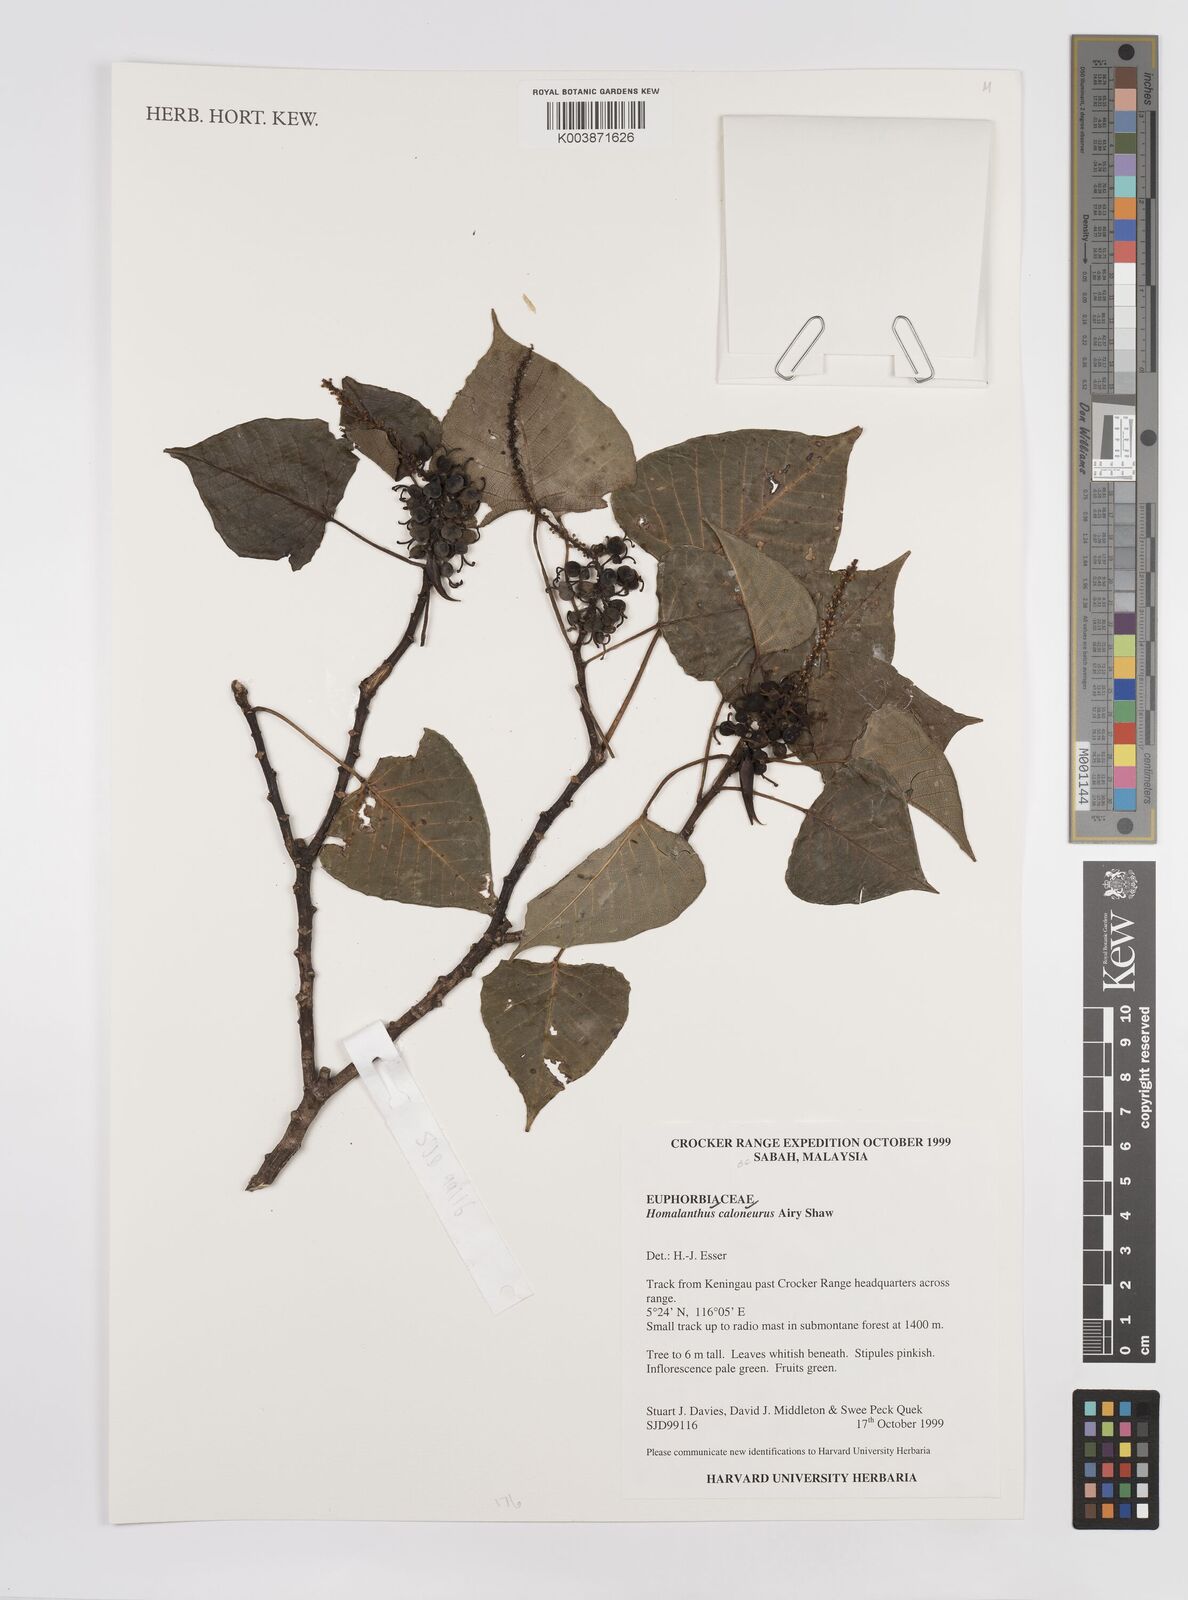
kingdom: Plantae
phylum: Tracheophyta
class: Magnoliopsida
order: Malpighiales
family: Euphorbiaceae
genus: Homalanthus
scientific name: Homalanthus caloneurus
